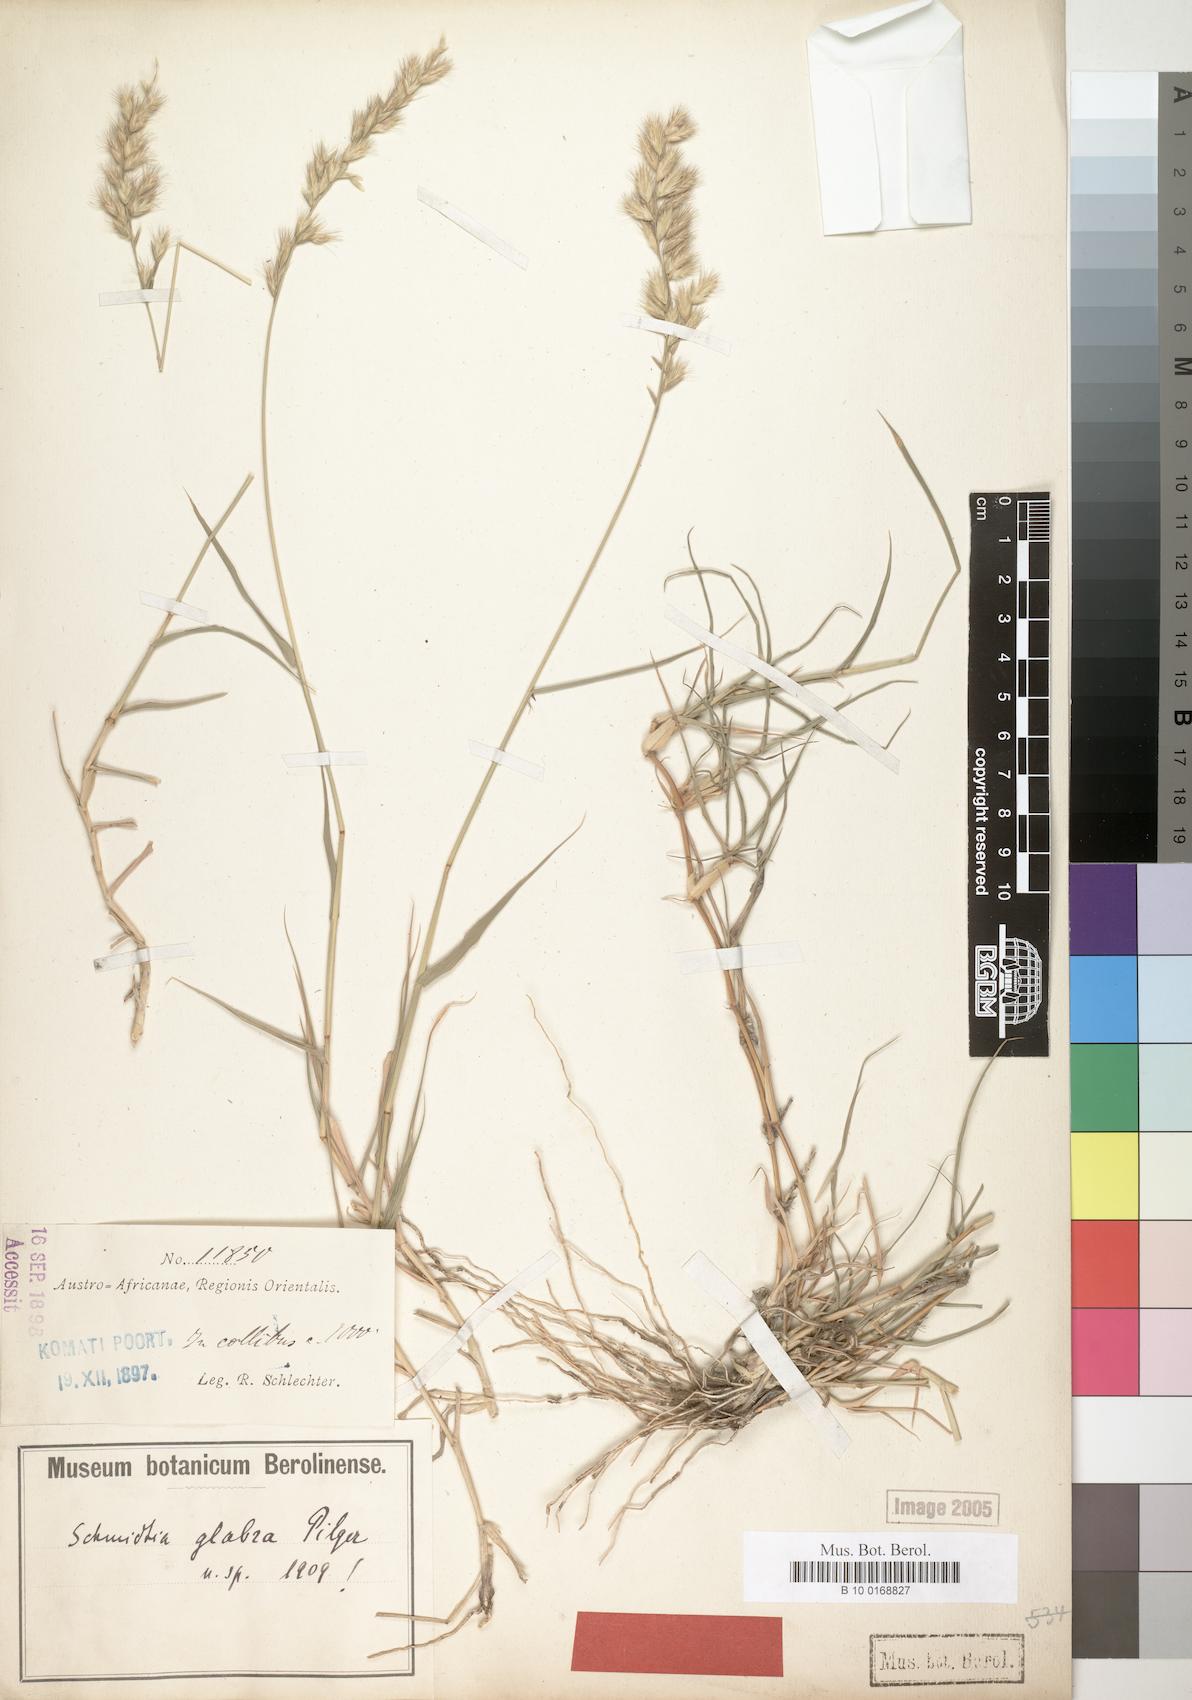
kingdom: Plantae
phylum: Tracheophyta
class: Liliopsida
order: Poales
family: Poaceae
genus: Schmidtia
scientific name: Schmidtia pappophoroides
